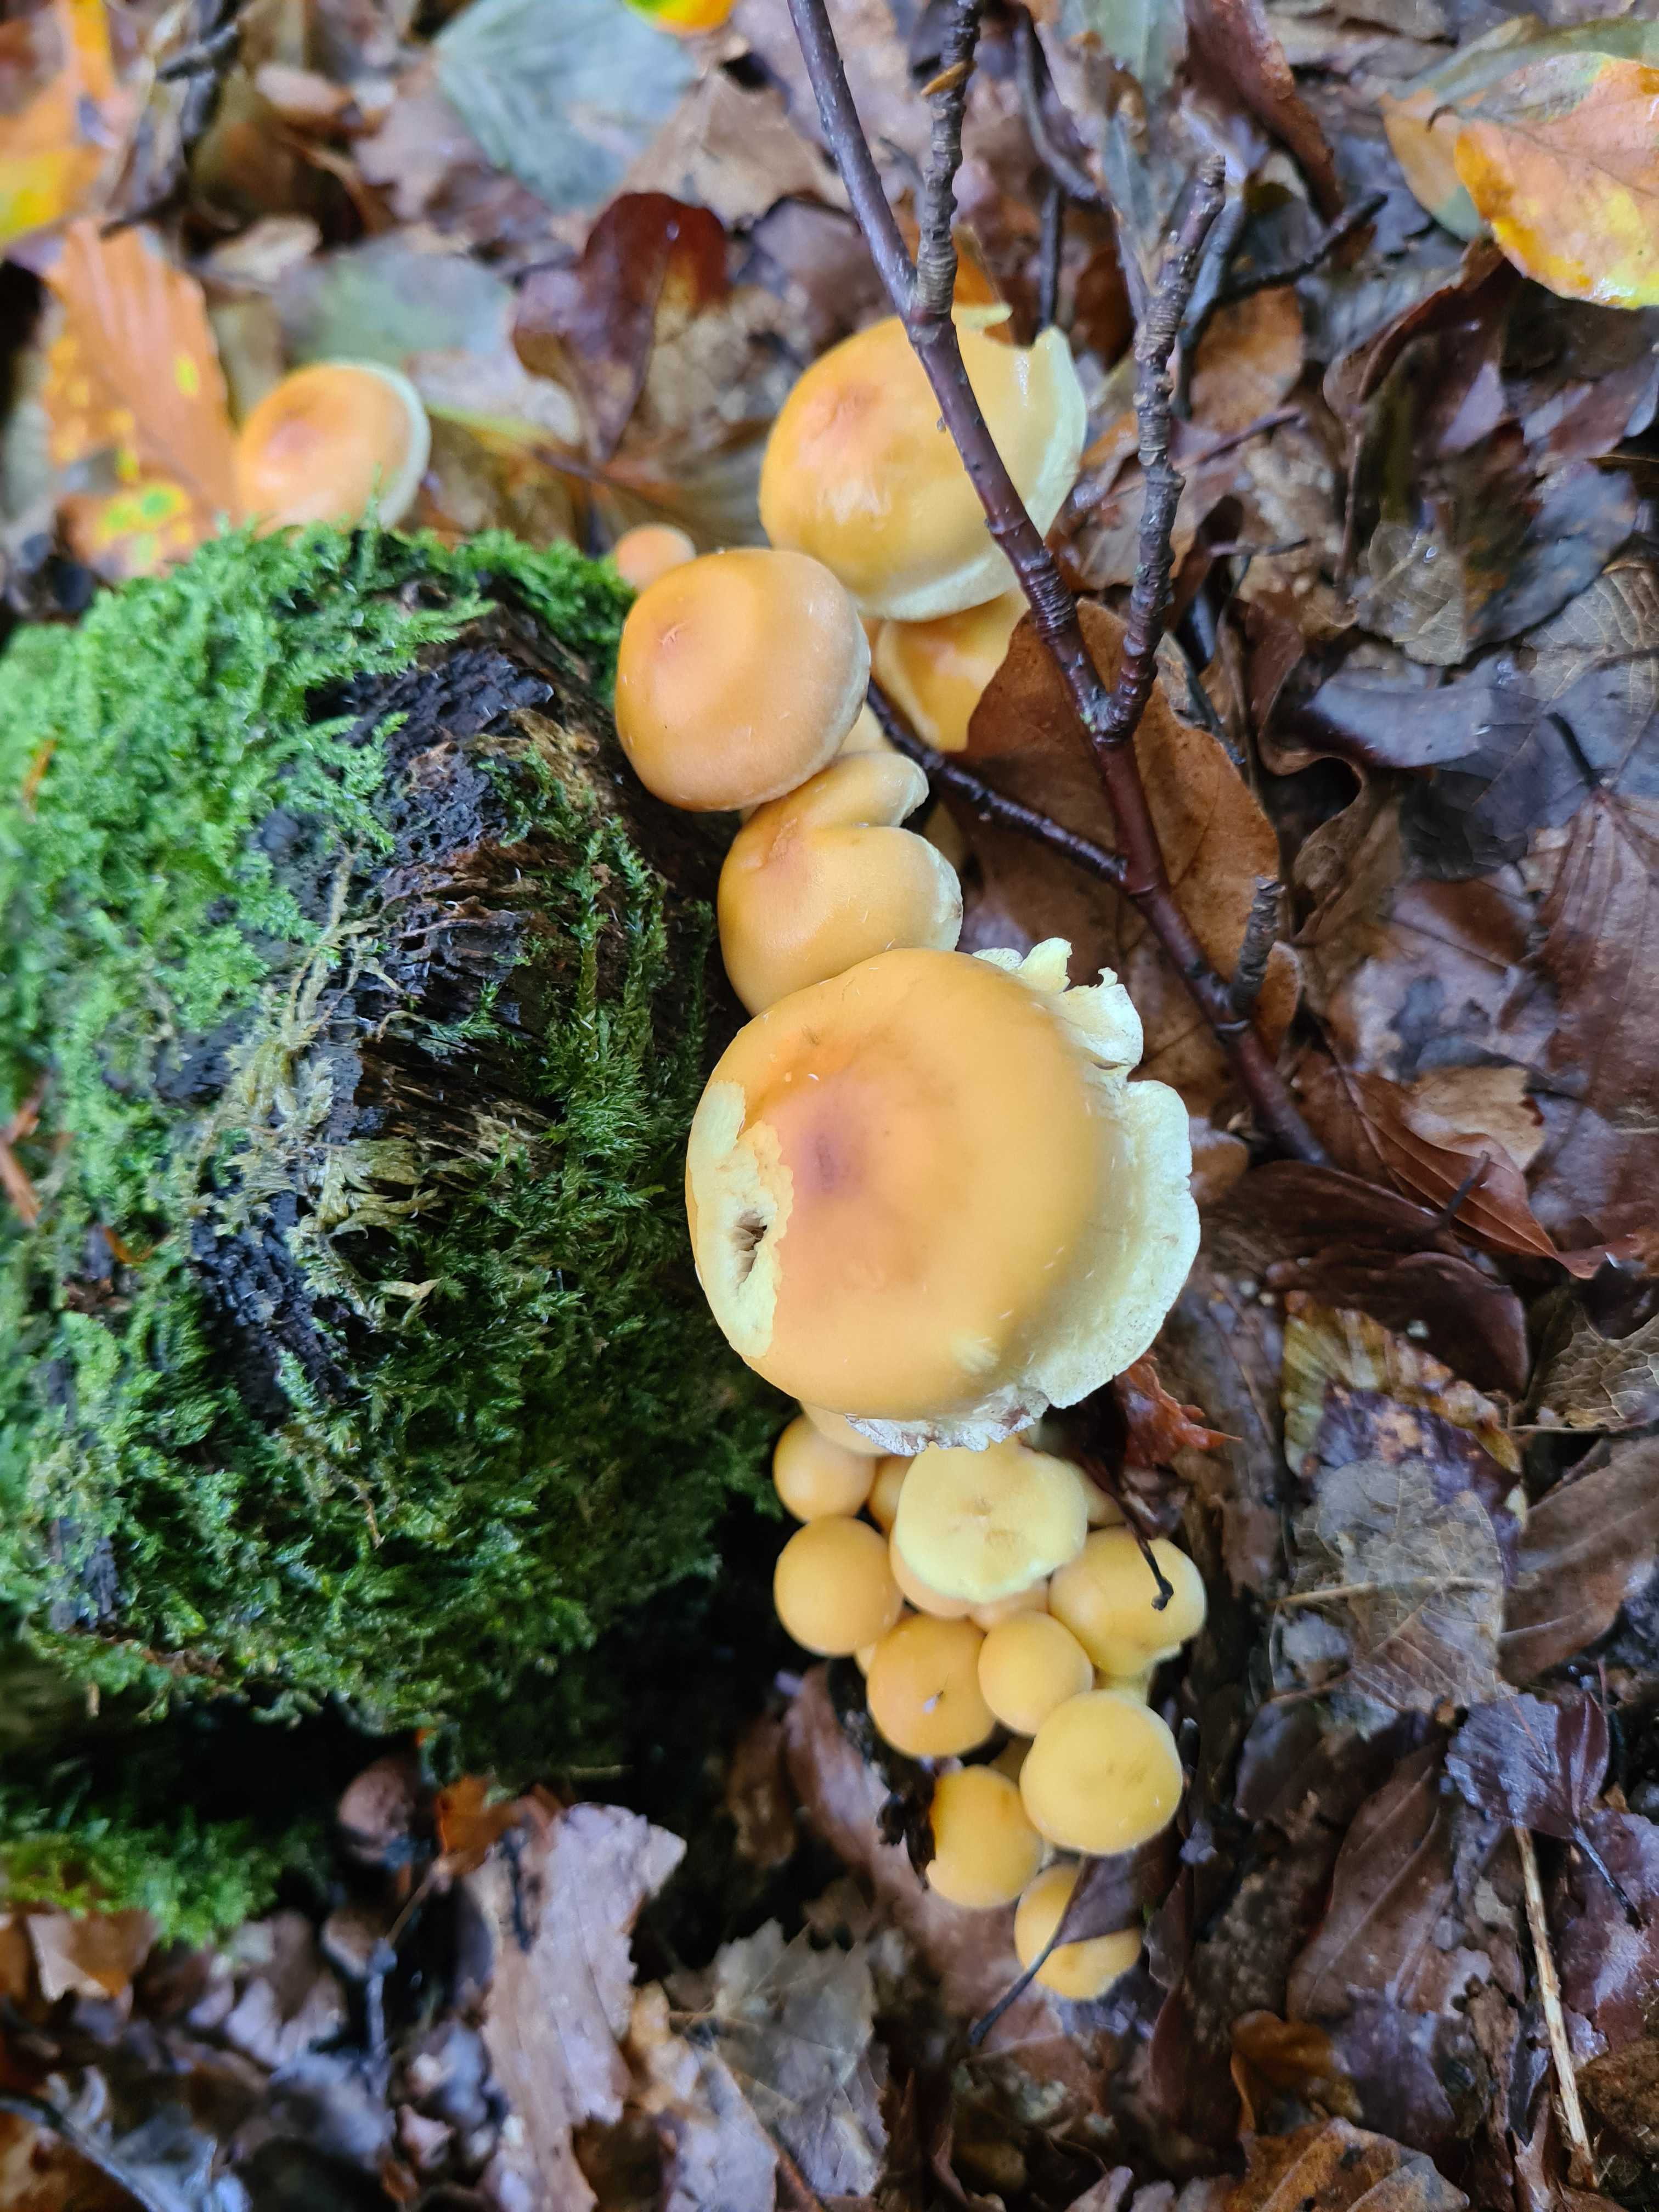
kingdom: Fungi
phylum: Basidiomycota
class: Agaricomycetes
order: Agaricales
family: Strophariaceae
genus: Hypholoma
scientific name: Hypholoma fasciculare
